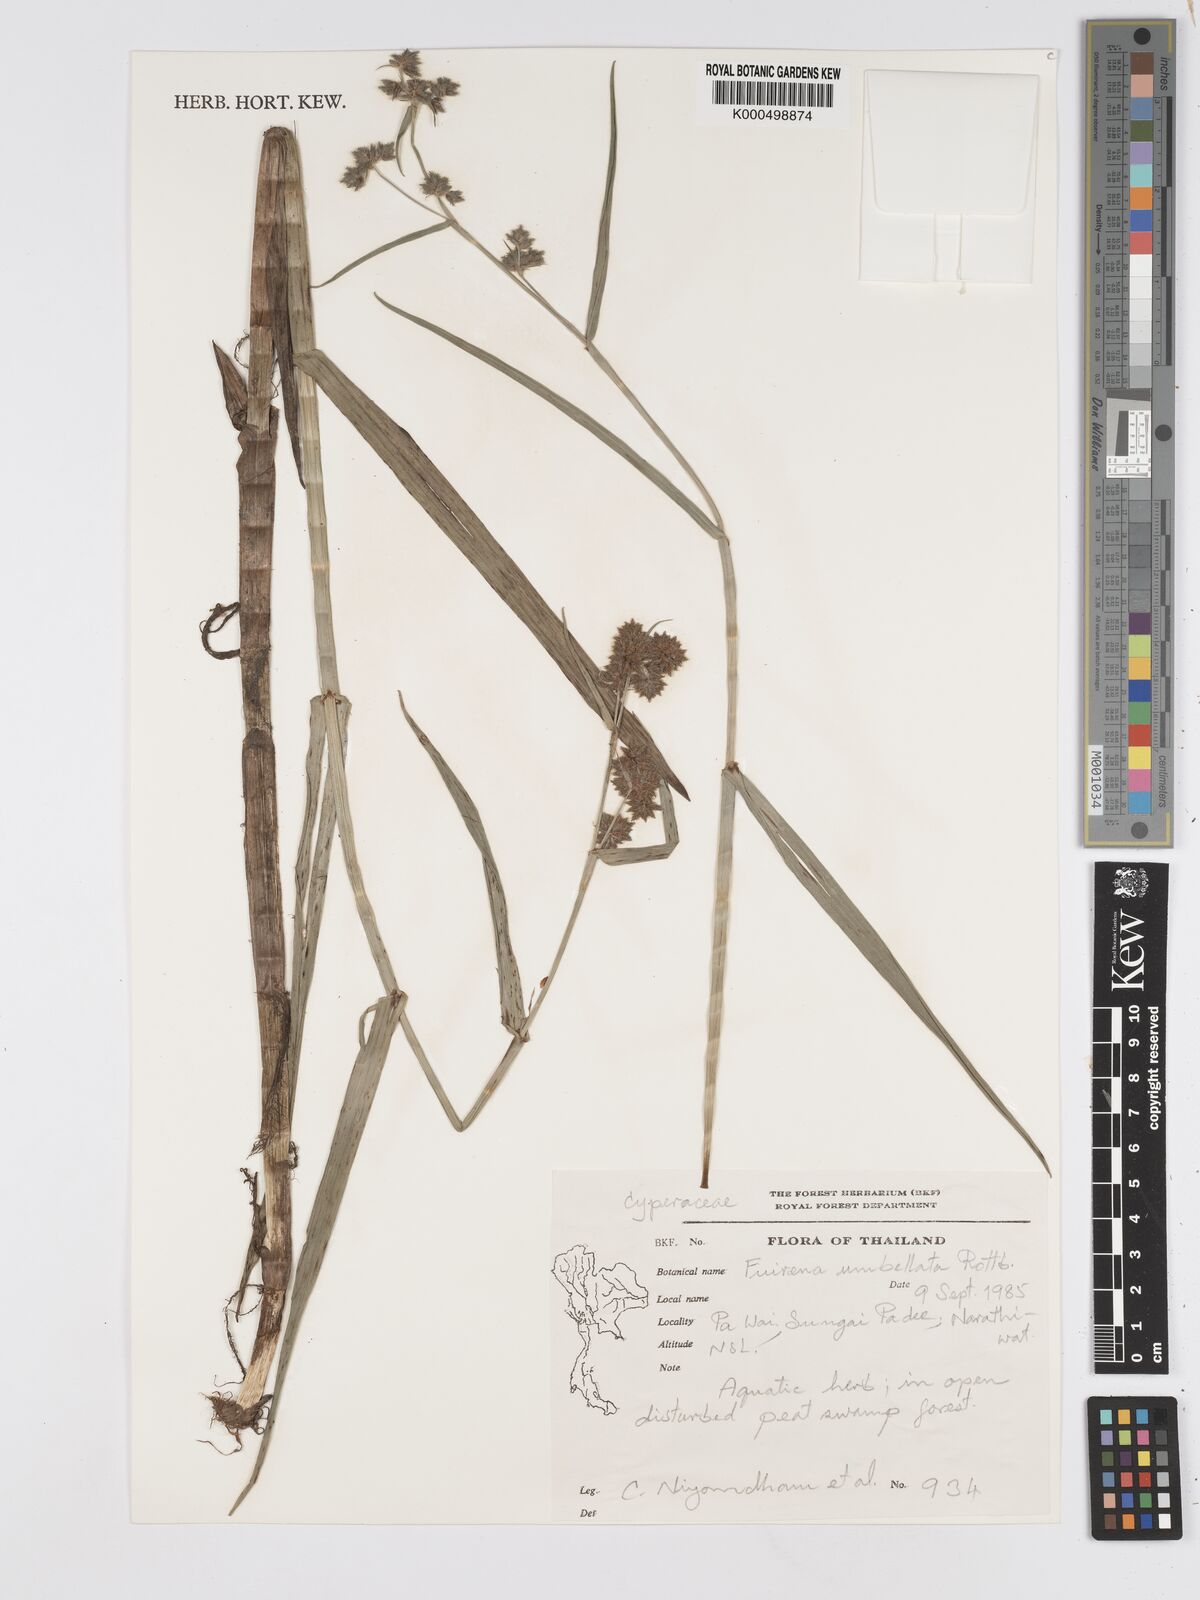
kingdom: Plantae
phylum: Tracheophyta
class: Liliopsida
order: Poales
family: Cyperaceae
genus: Fuirena
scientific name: Fuirena umbellata
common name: Yefen
